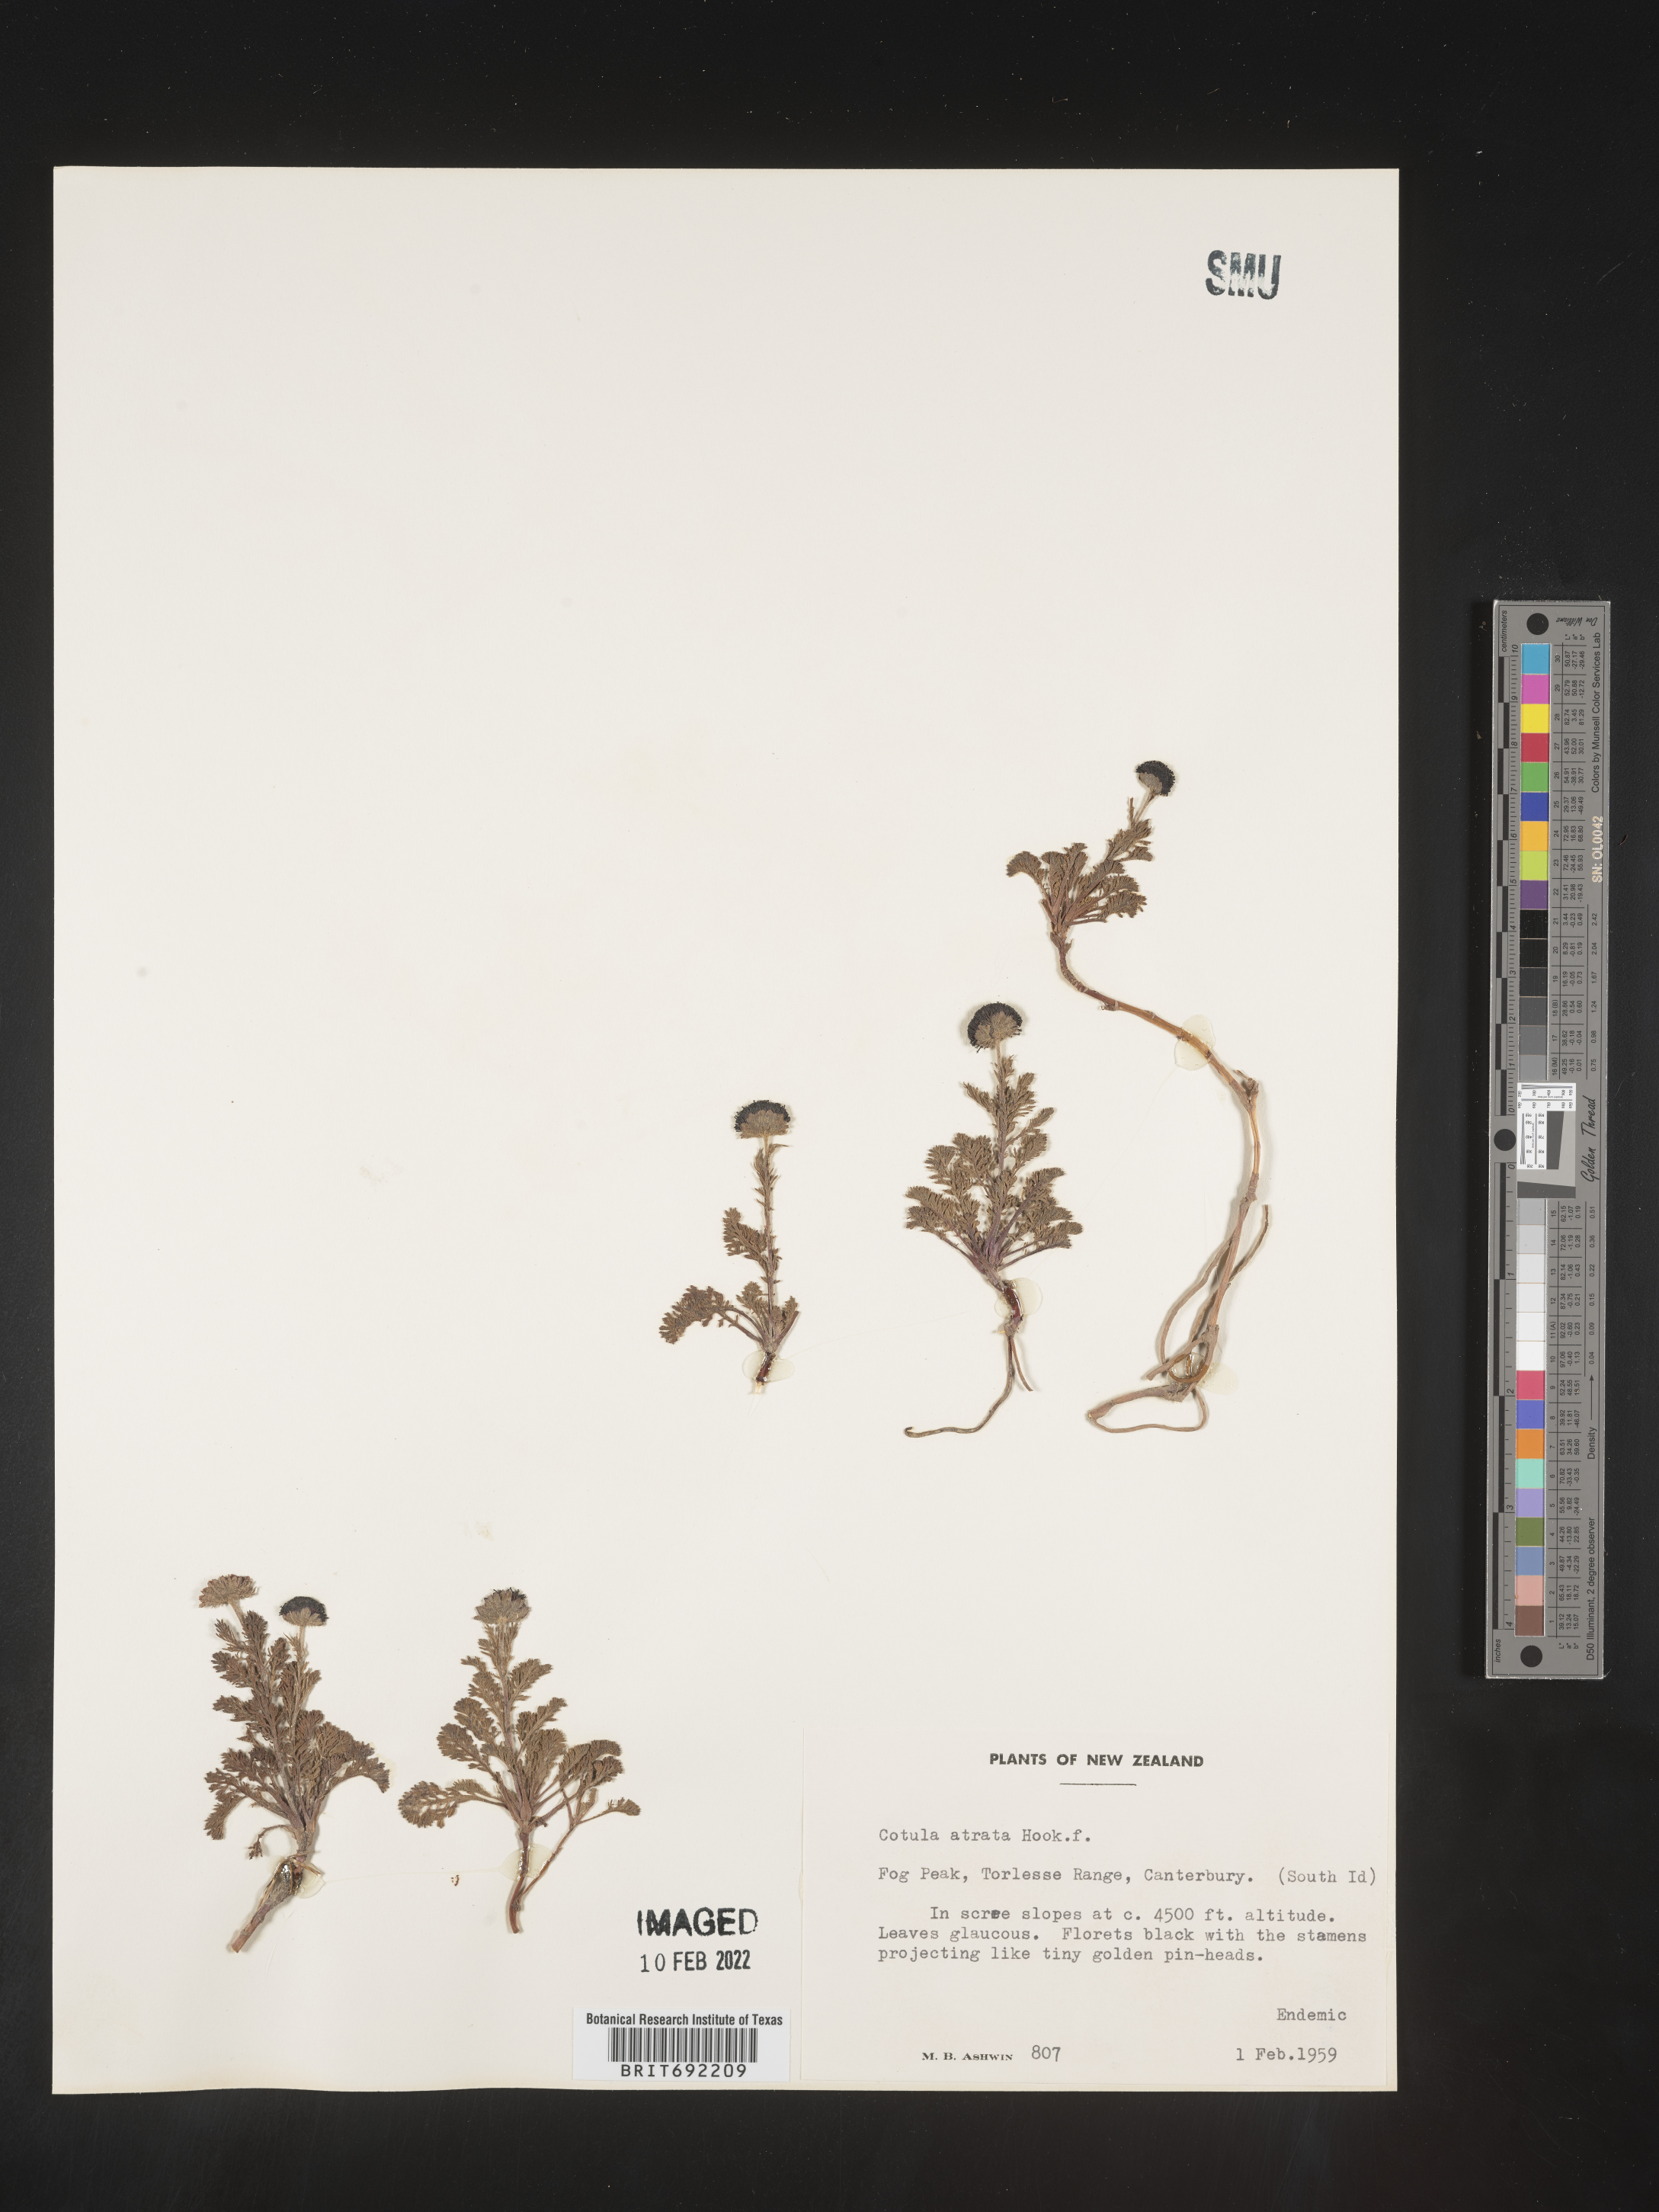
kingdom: Plantae
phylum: Tracheophyta
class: Magnoliopsida
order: Asterales
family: Asteraceae
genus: Cotula
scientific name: Cotula
